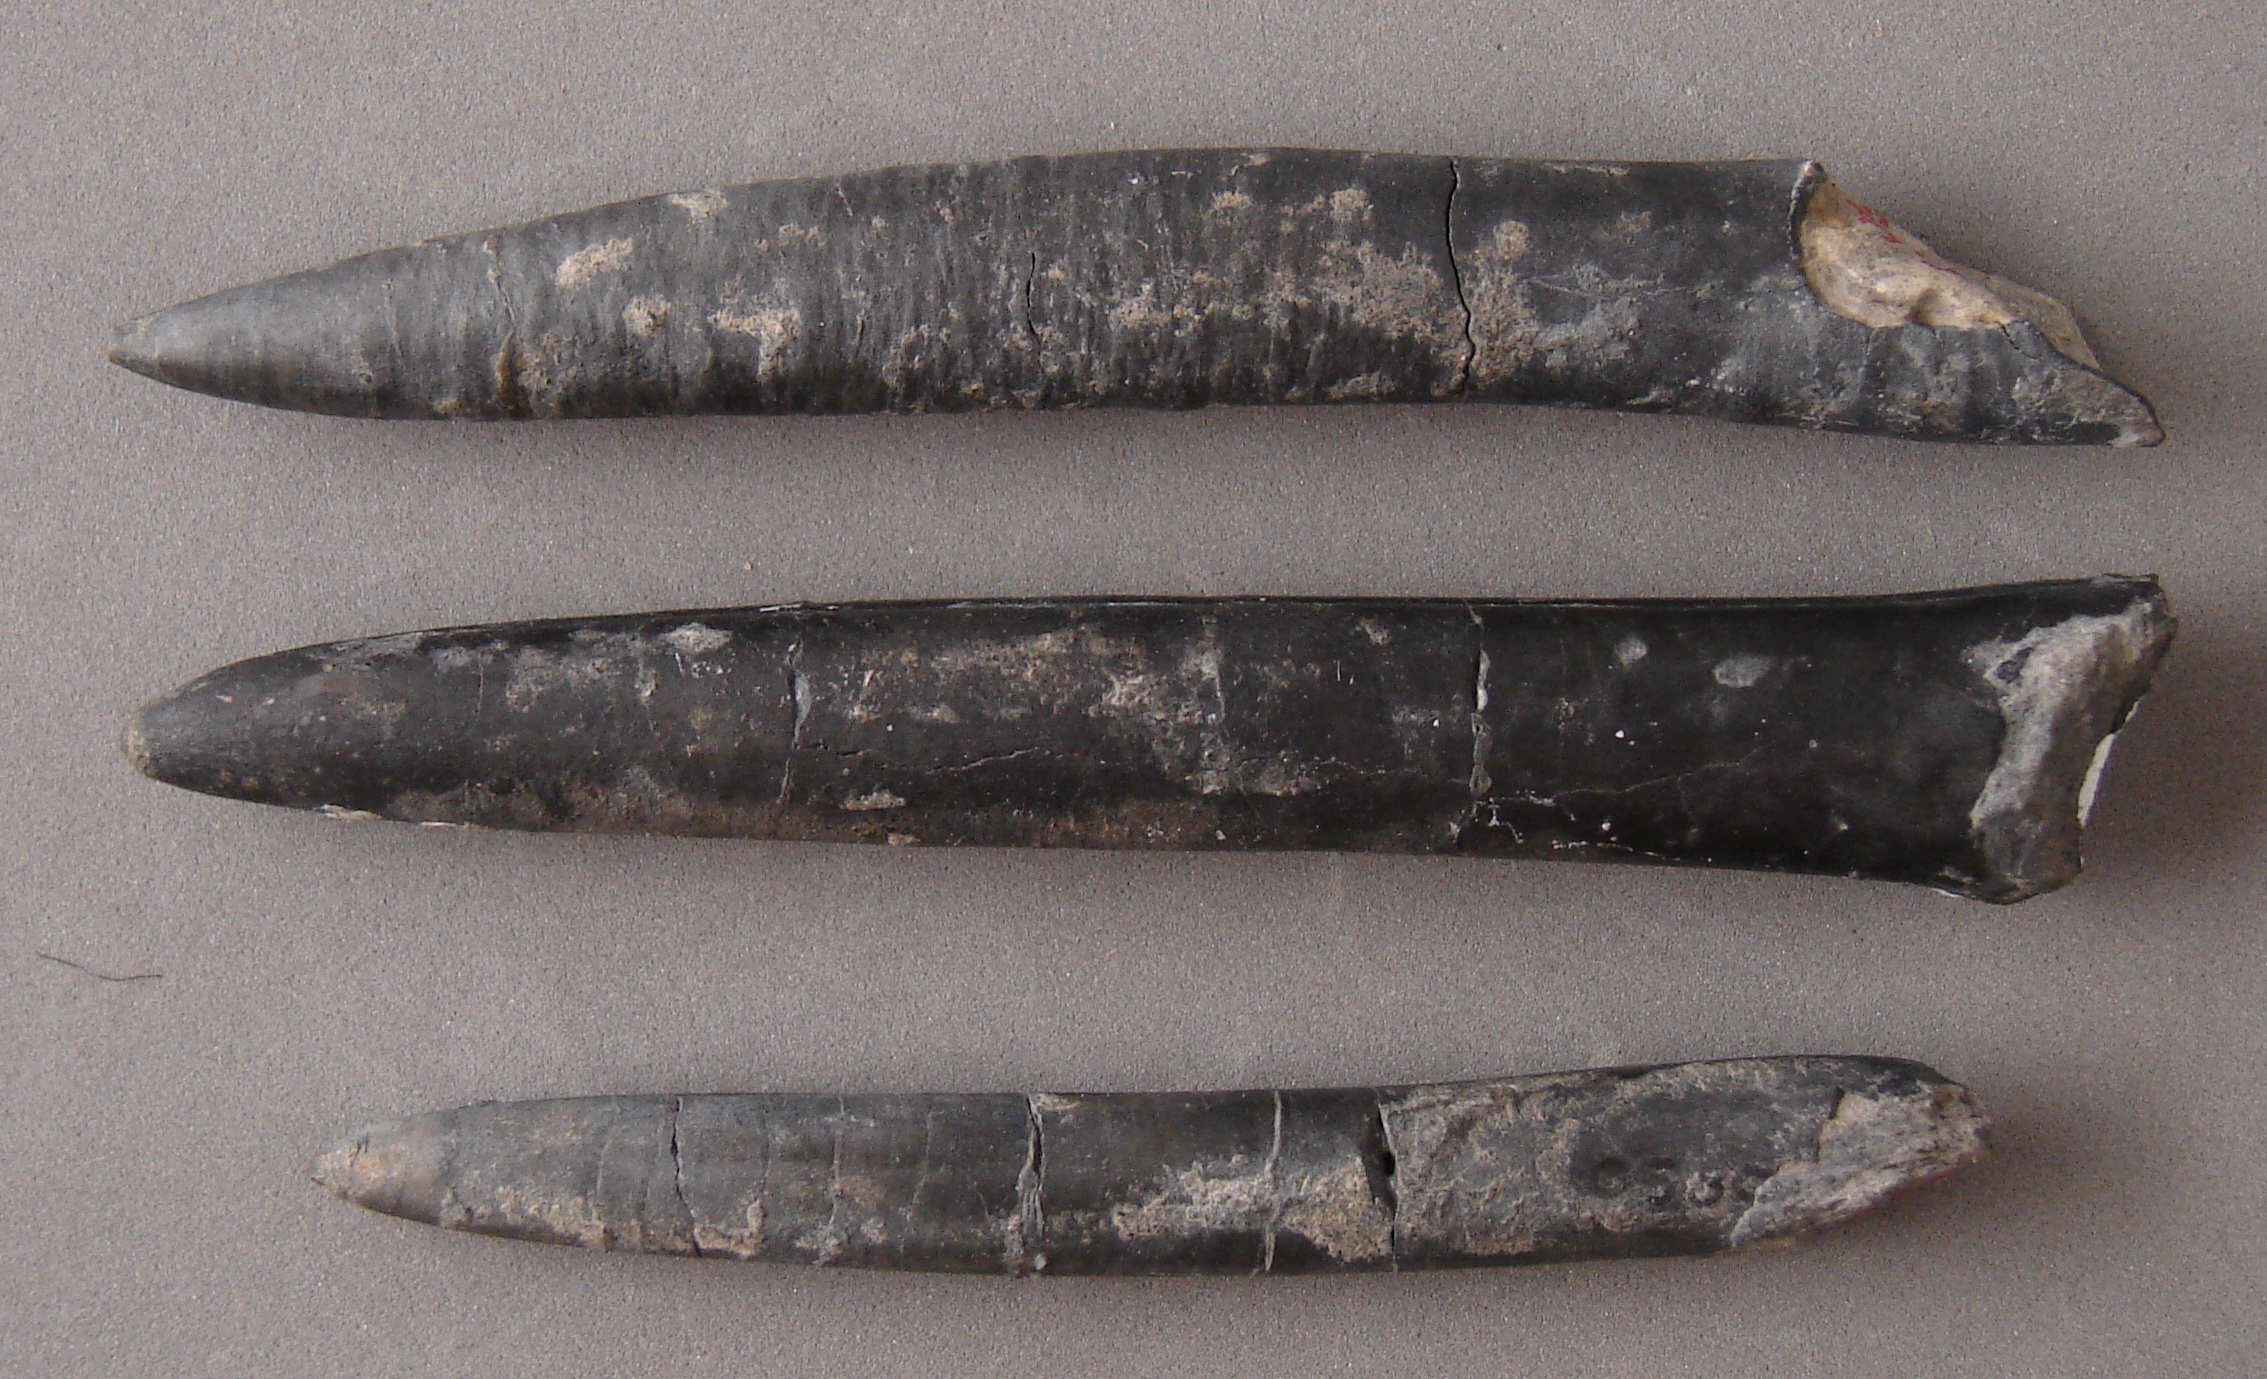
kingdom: Animalia
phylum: Mollusca
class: Cephalopoda
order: Belemnitida
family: Holcobelidae
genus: Calabribelus
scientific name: Calabribelus
